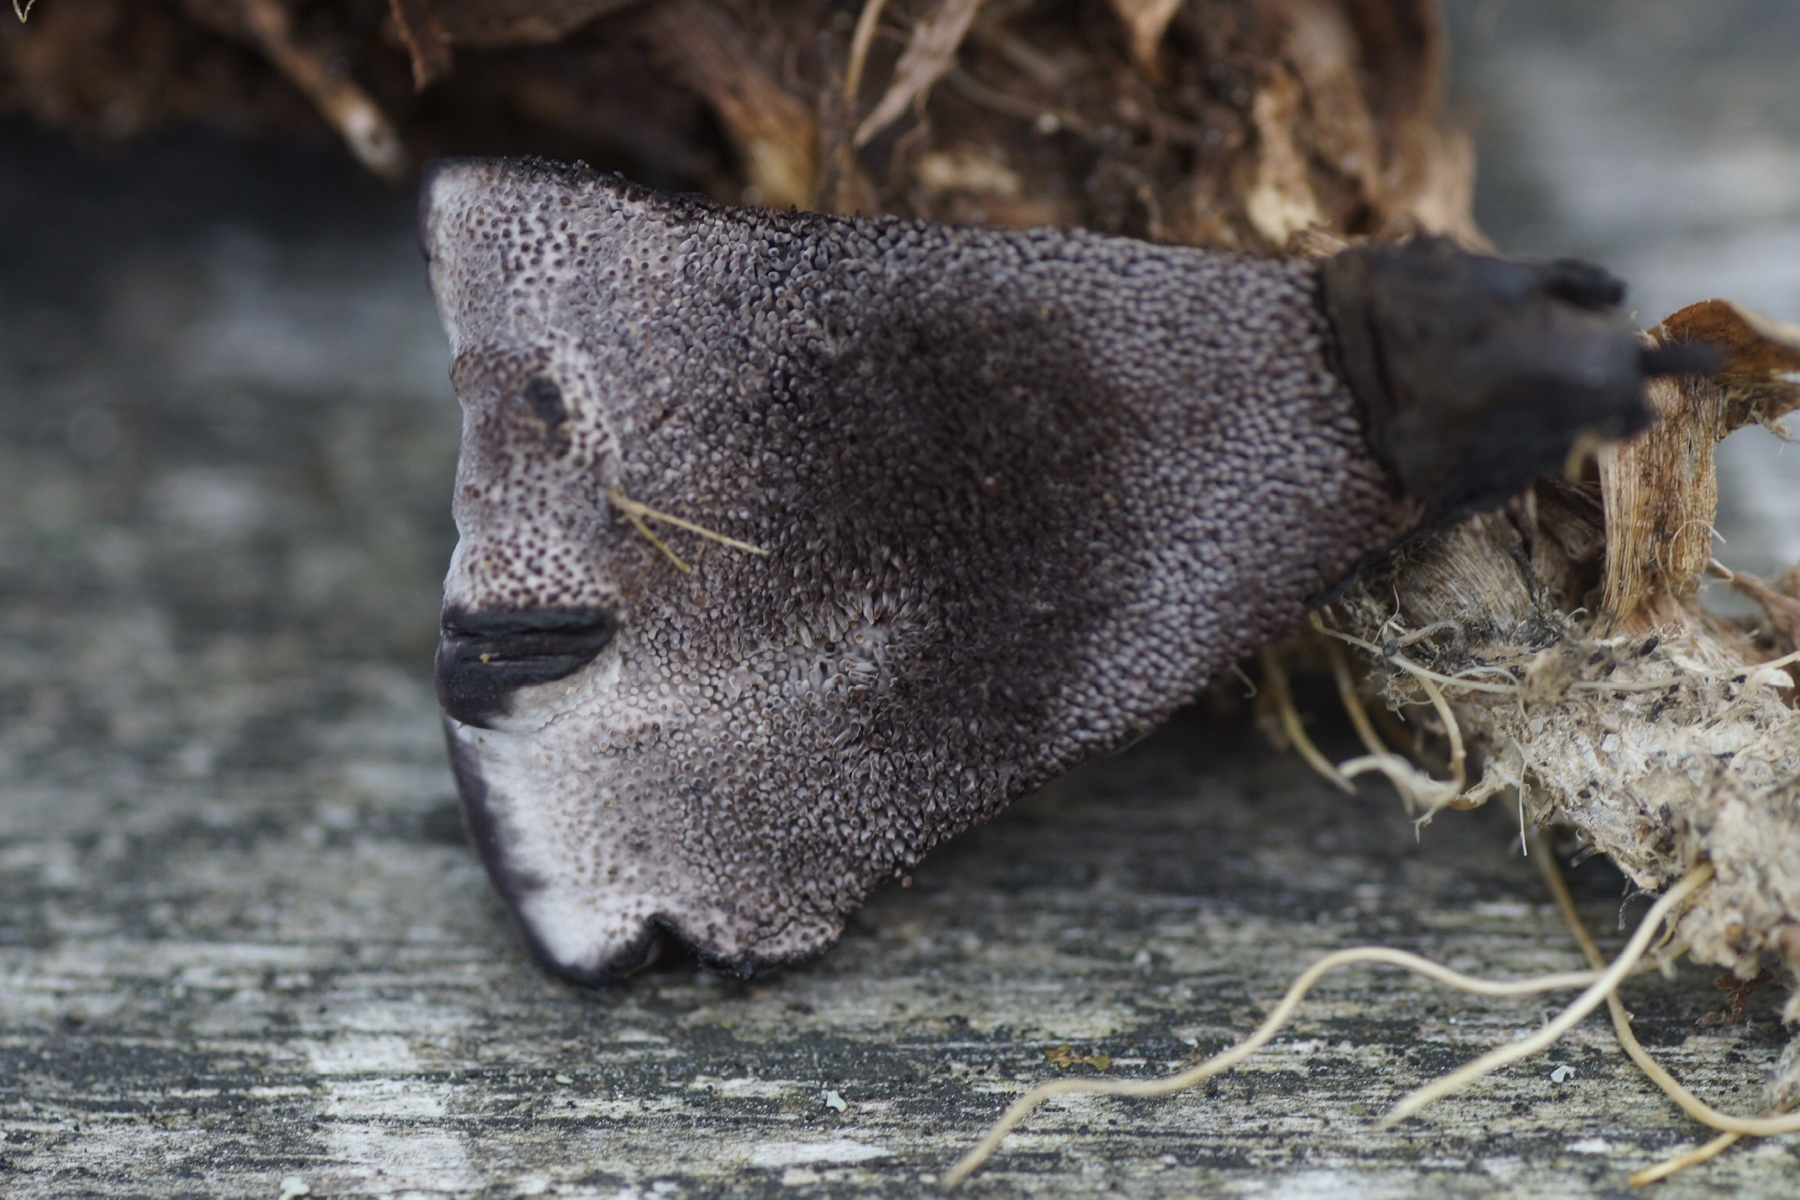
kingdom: Fungi
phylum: Basidiomycota
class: Agaricomycetes
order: Thelephorales
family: Thelephoraceae
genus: Phellodon
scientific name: Phellodon
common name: mørk duftpigsvamp
